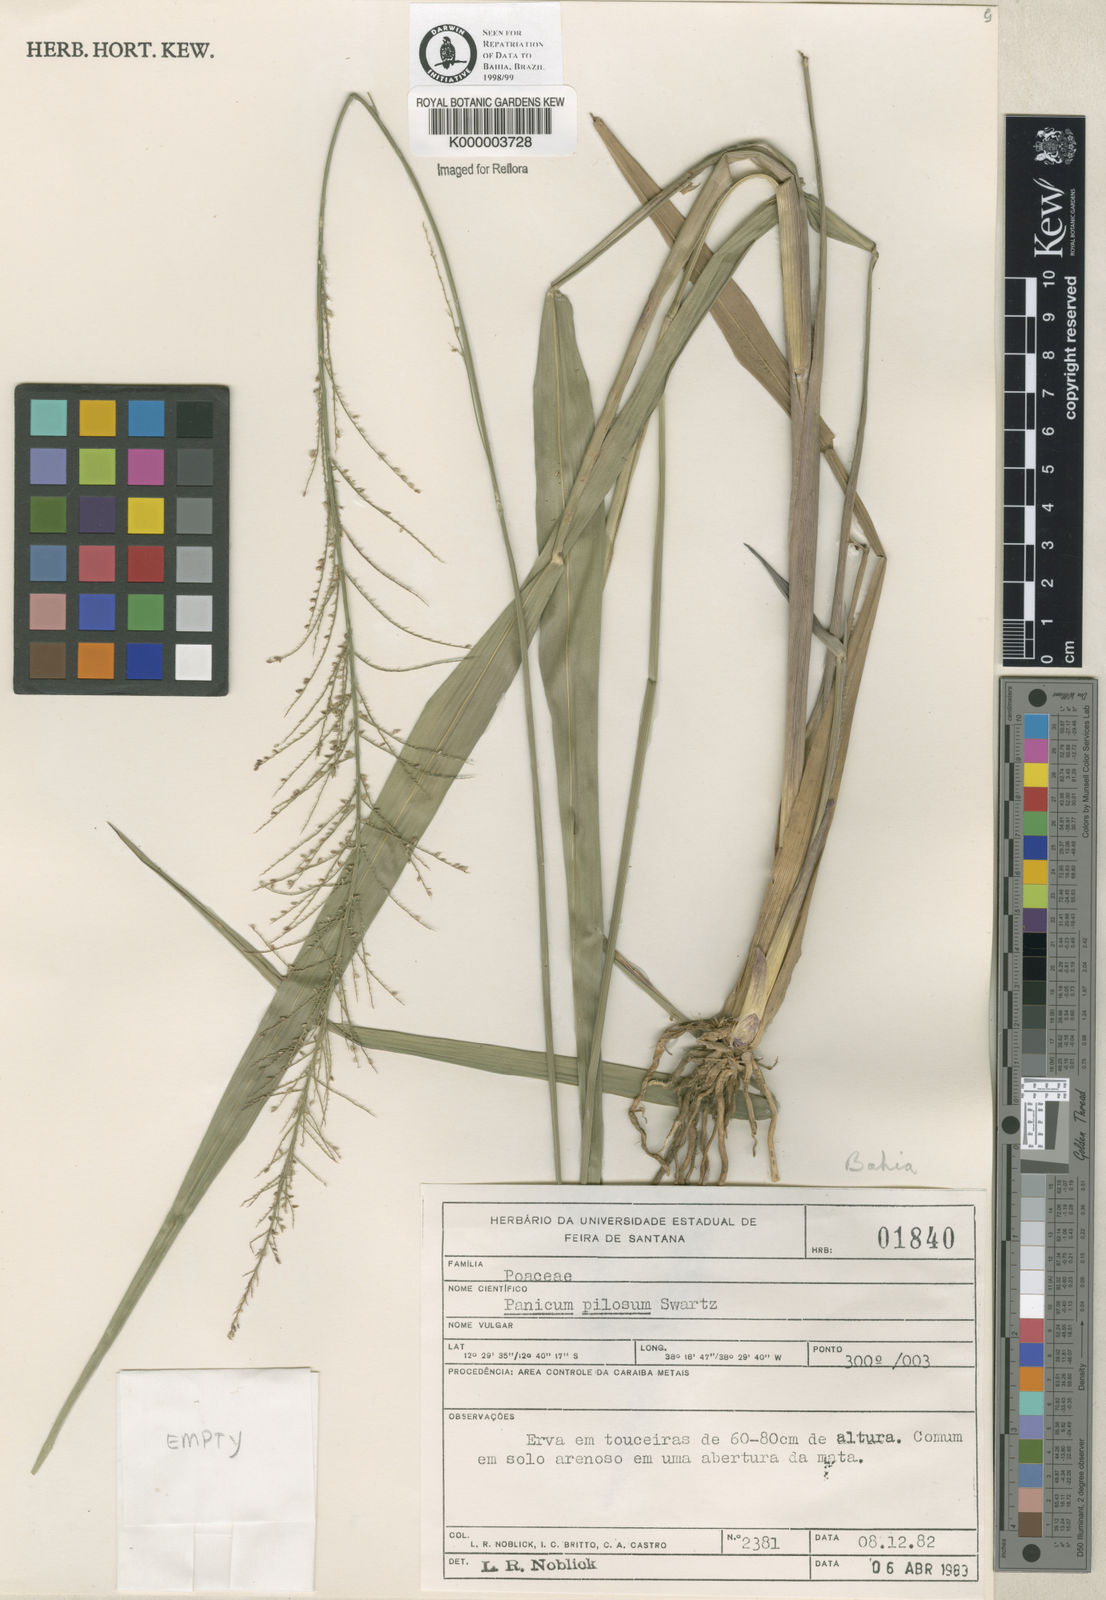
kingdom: Plantae
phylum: Tracheophyta
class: Liliopsida
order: Poales
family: Poaceae
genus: Panicum
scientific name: Panicum dichotomiflorum
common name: Autumn millet
